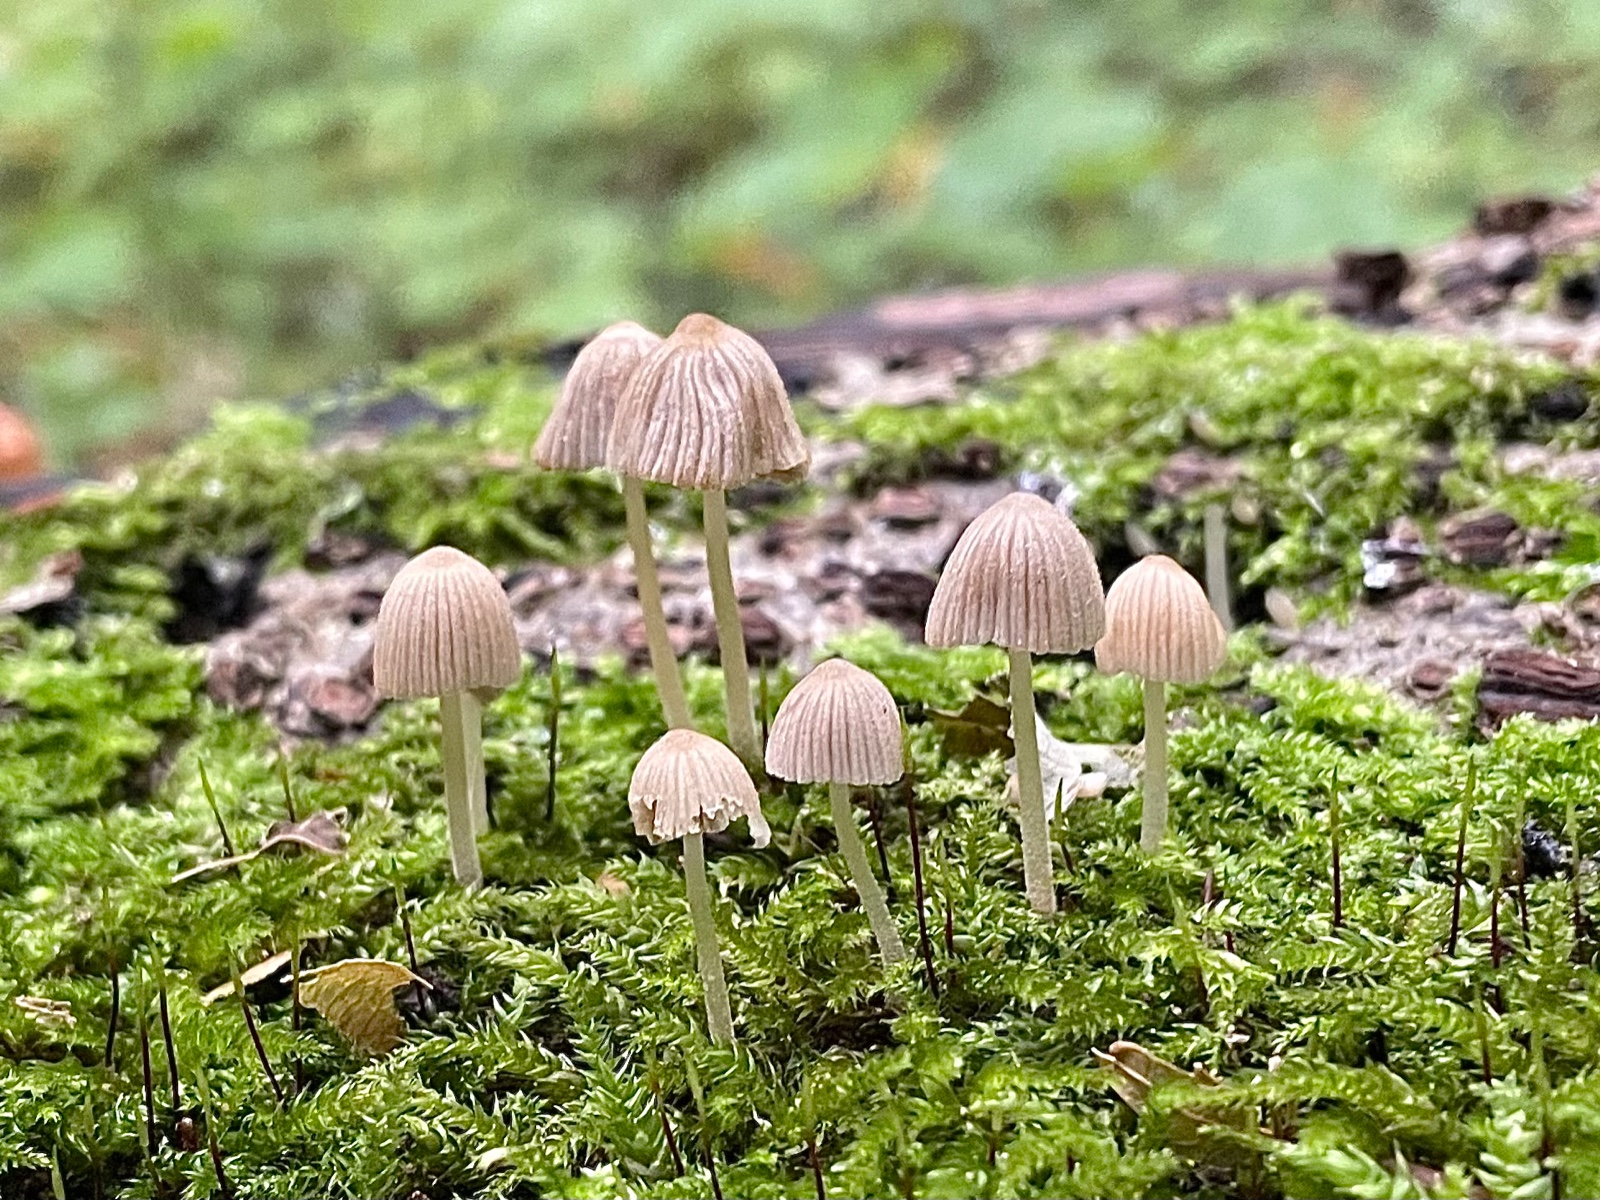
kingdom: Fungi
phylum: Basidiomycota
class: Agaricomycetes
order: Agaricales
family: Psathyrellaceae
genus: Coprinellus
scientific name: Coprinellus disseminatus
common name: bredsået blækhat
